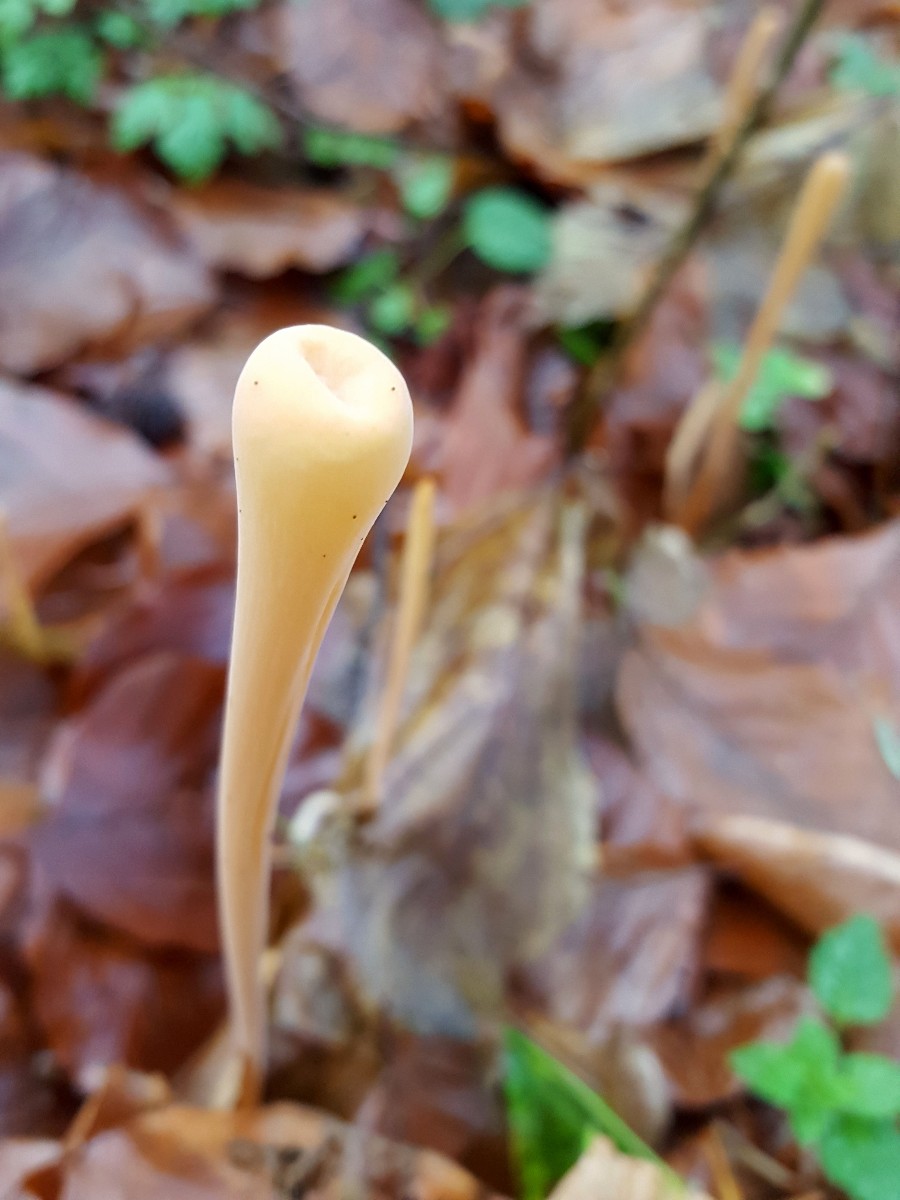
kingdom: Fungi
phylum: Basidiomycota
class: Agaricomycetes
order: Agaricales
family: Typhulaceae
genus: Typhula
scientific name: Typhula fistulosa
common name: pibet rørkølle
